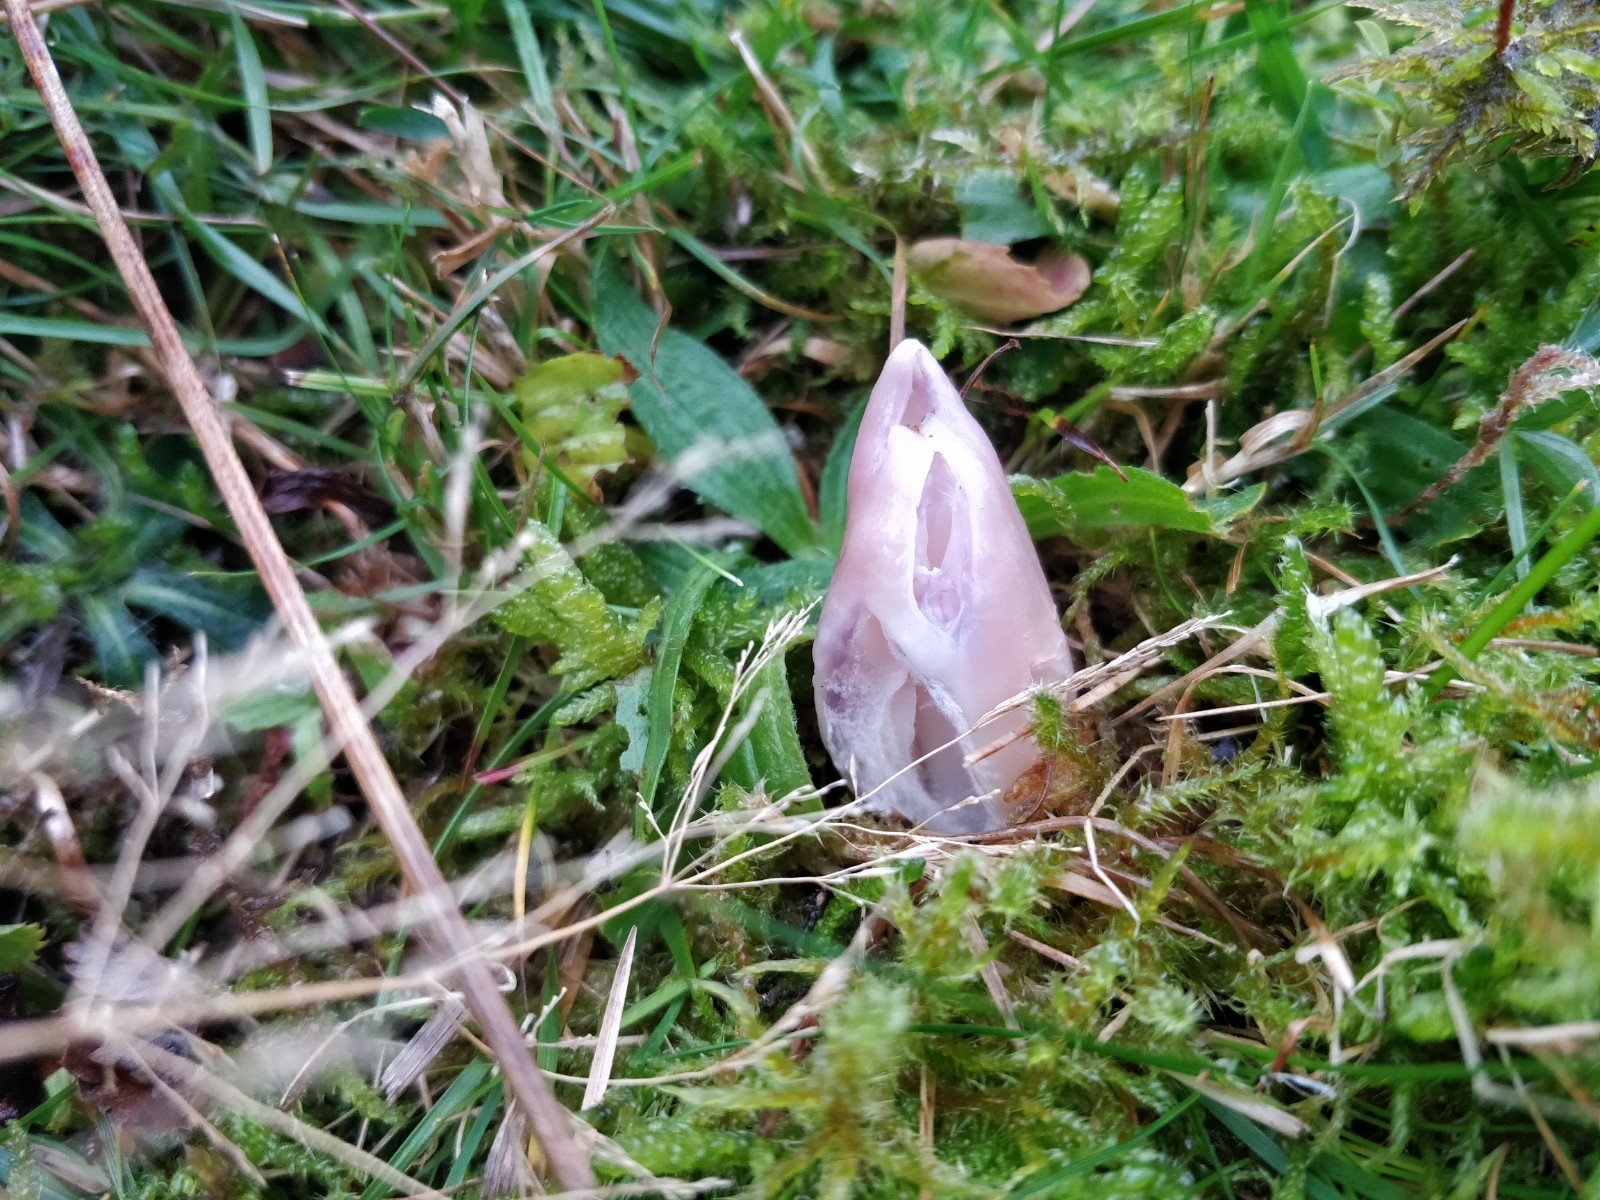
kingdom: Fungi
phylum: Basidiomycota
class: Agaricomycetes
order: Agaricales
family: Hygrophoraceae
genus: Porpolomopsis
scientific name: Porpolomopsis calyptriformis
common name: rosenrød vokshat
